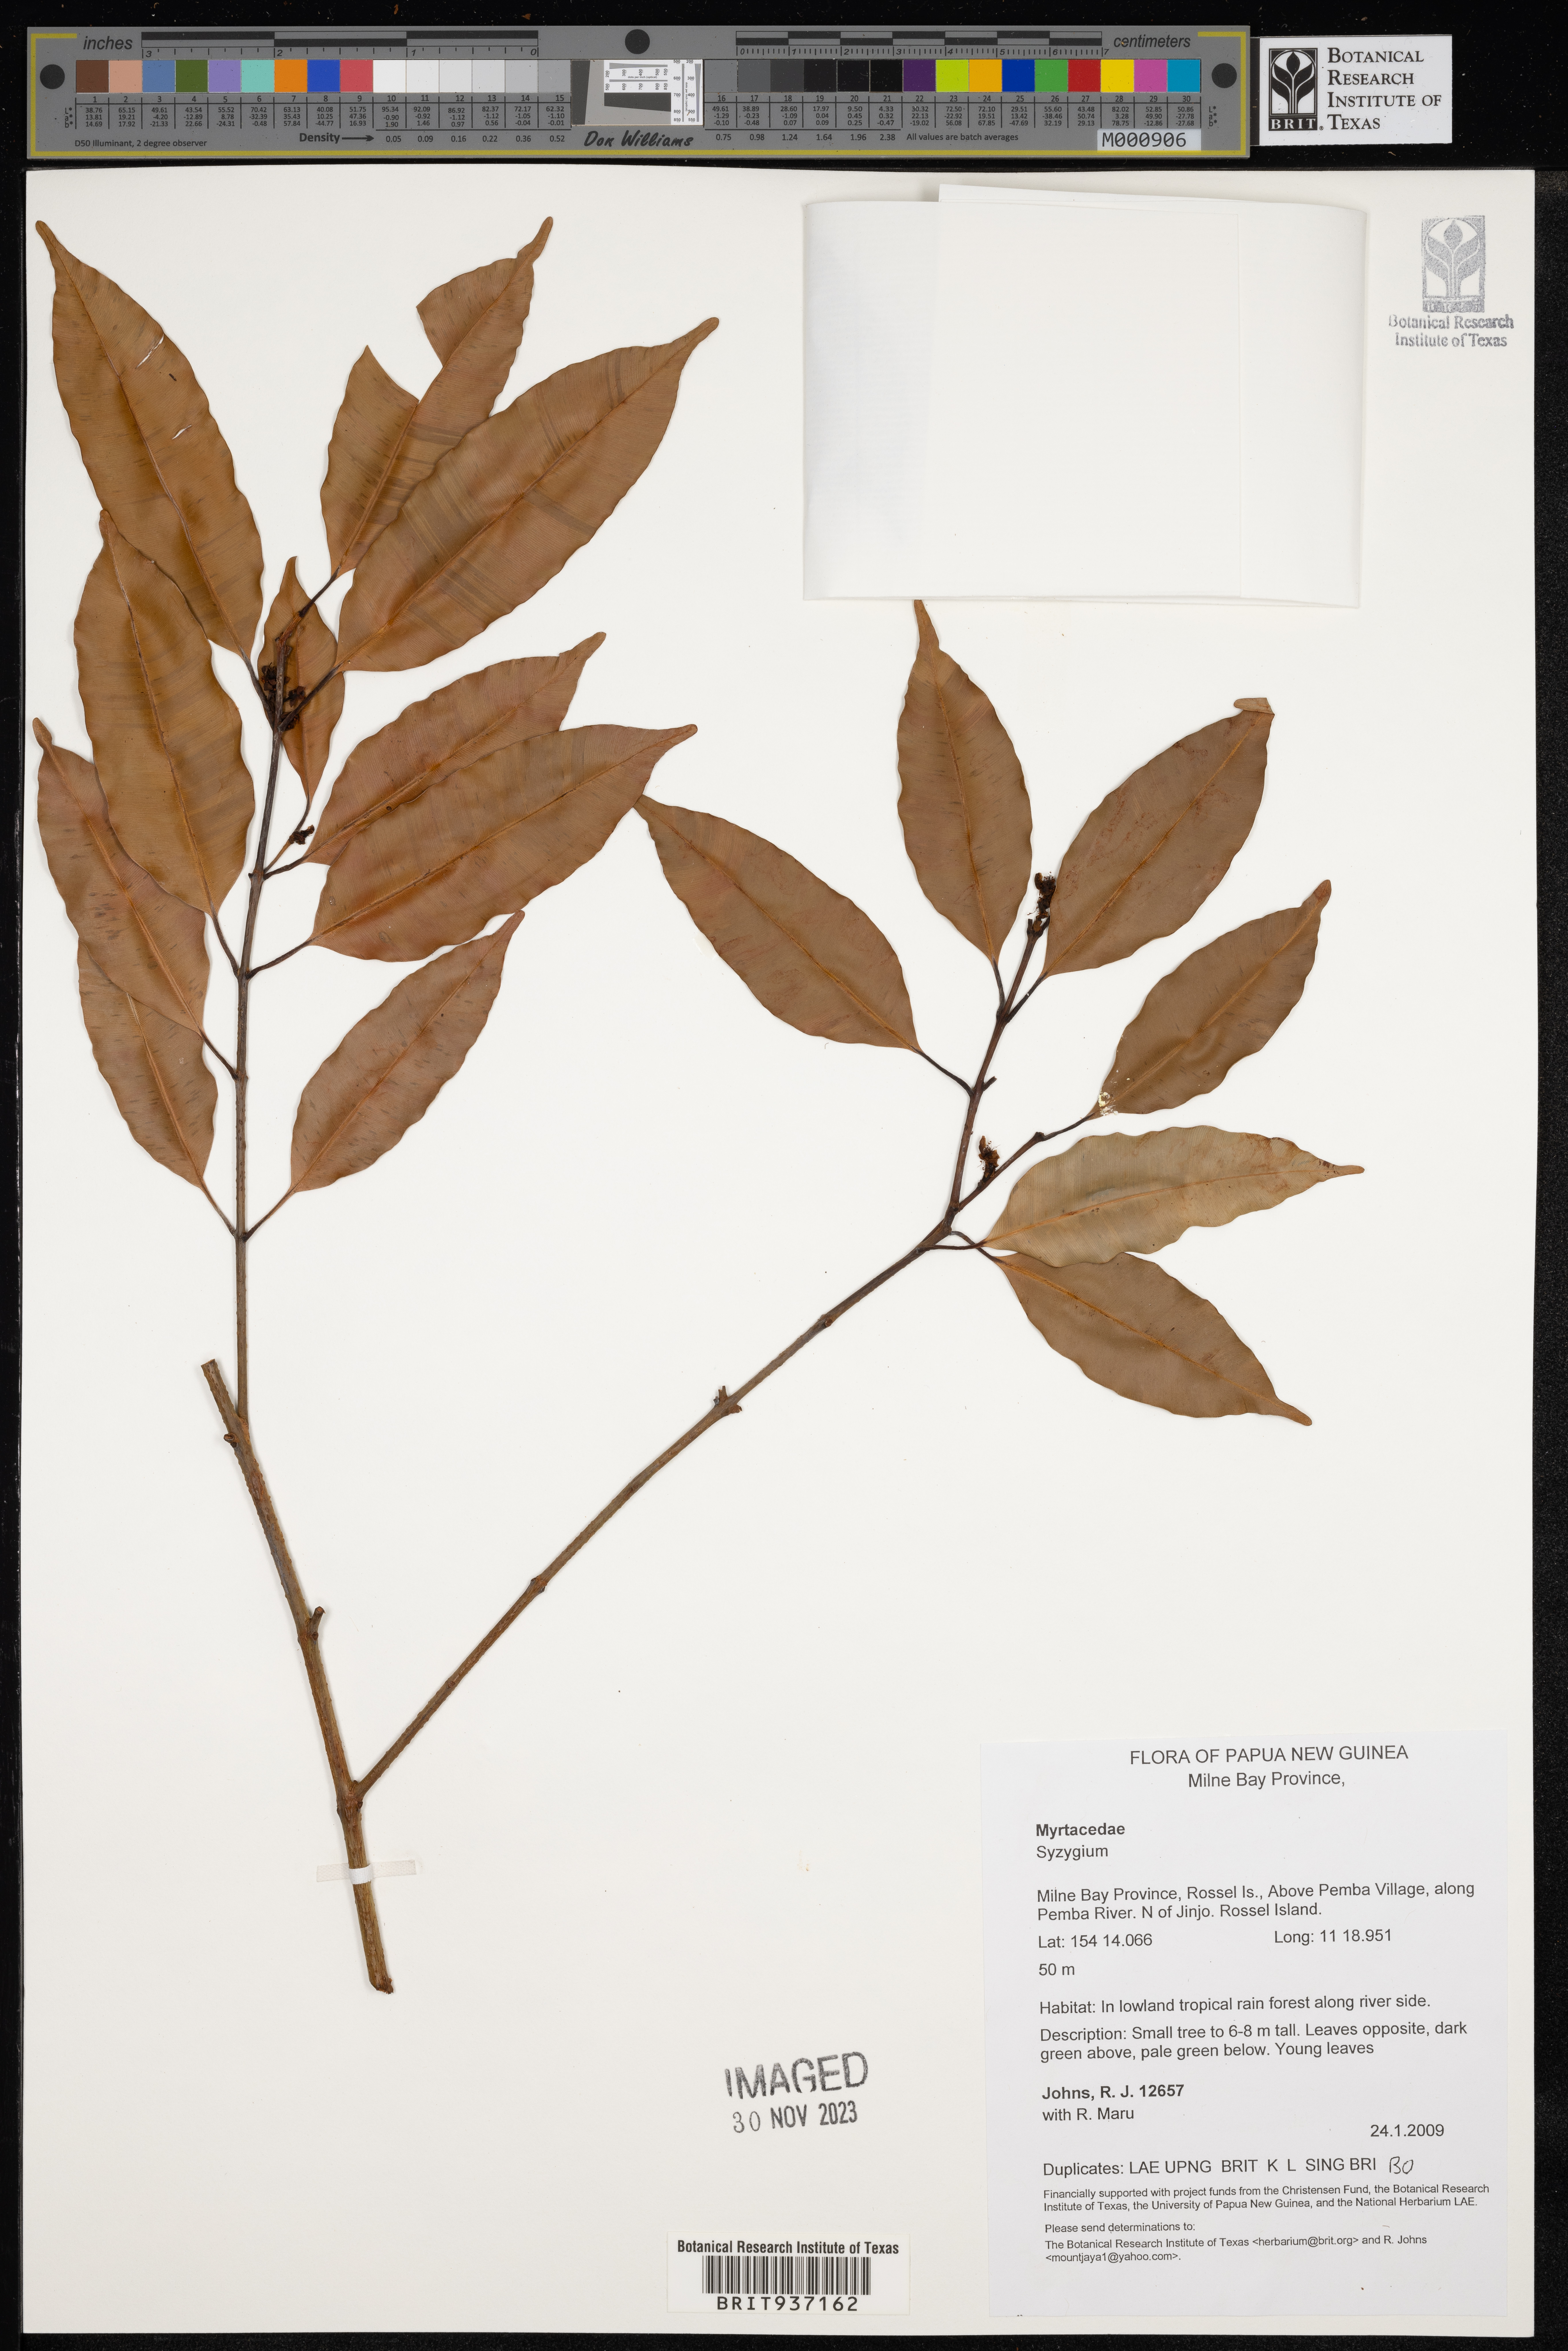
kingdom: Plantae
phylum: Tracheophyta
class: Magnoliopsida
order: Myrtales
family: Myrtaceae
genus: Syzygium
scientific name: Syzygium
